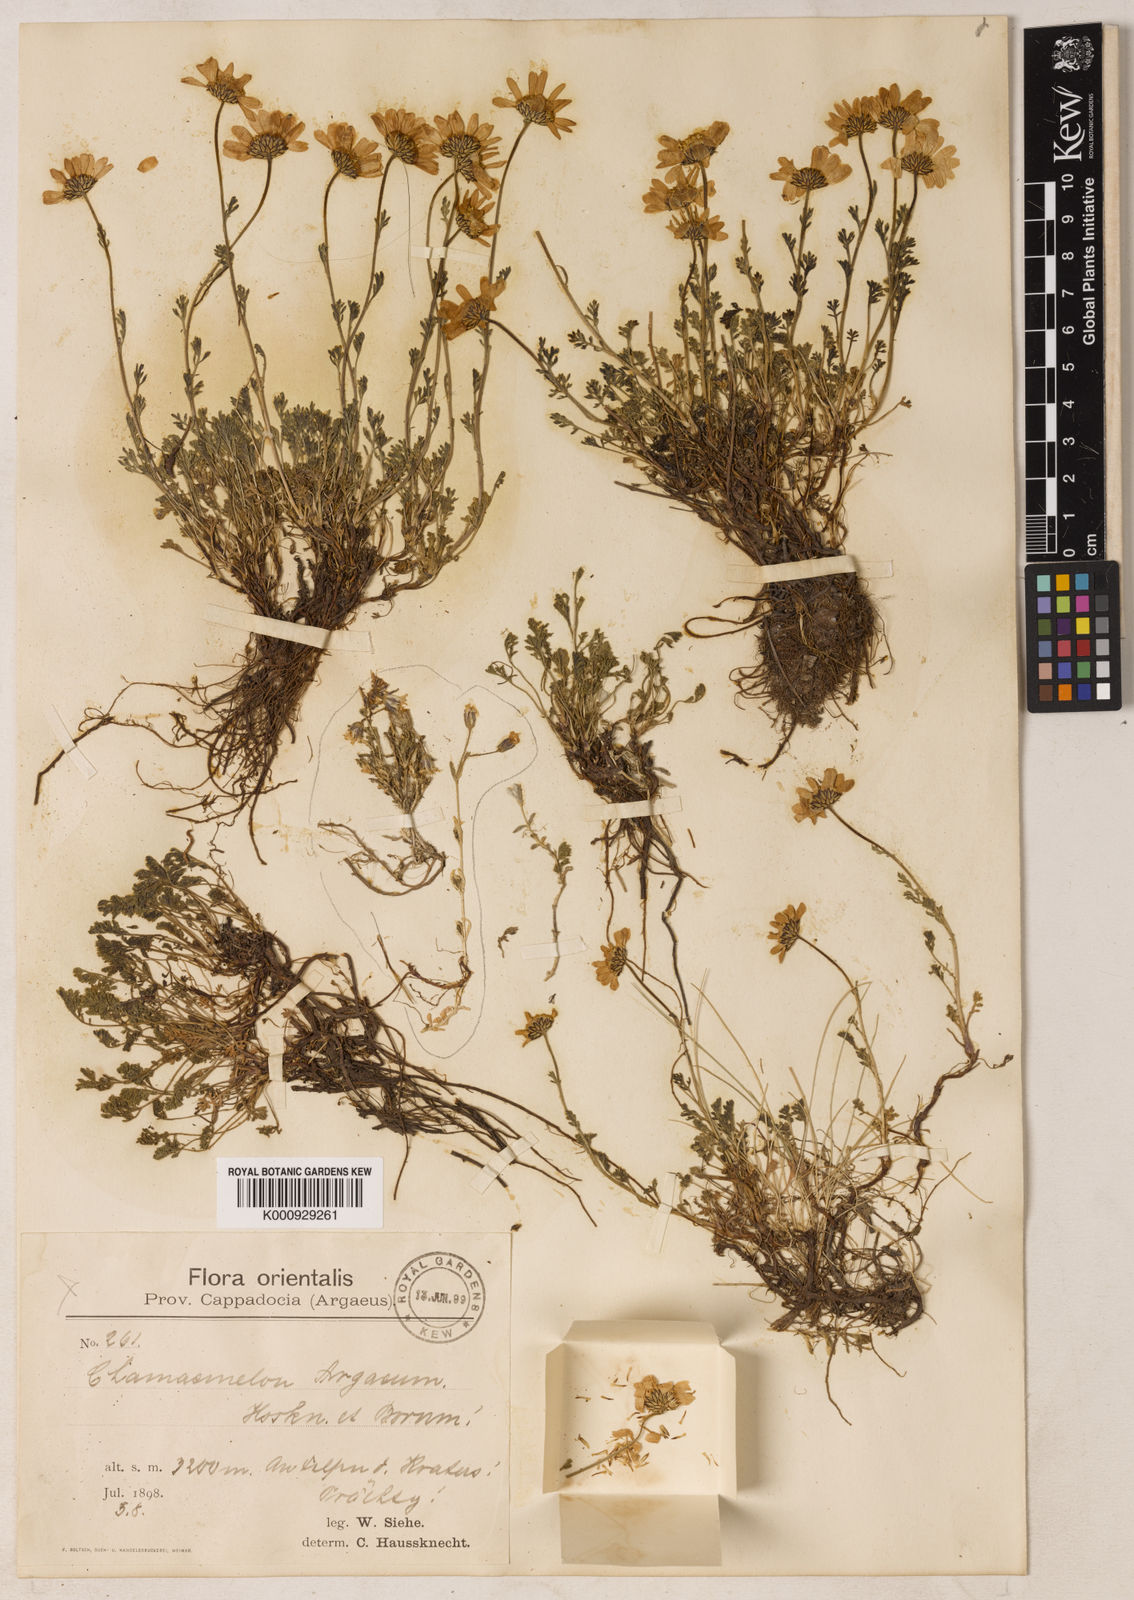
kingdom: Plantae
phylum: Tracheophyta
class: Magnoliopsida
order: Asterales
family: Asteraceae
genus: Anthemis
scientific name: Anthemis cretica
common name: Mountain dog-daisy
